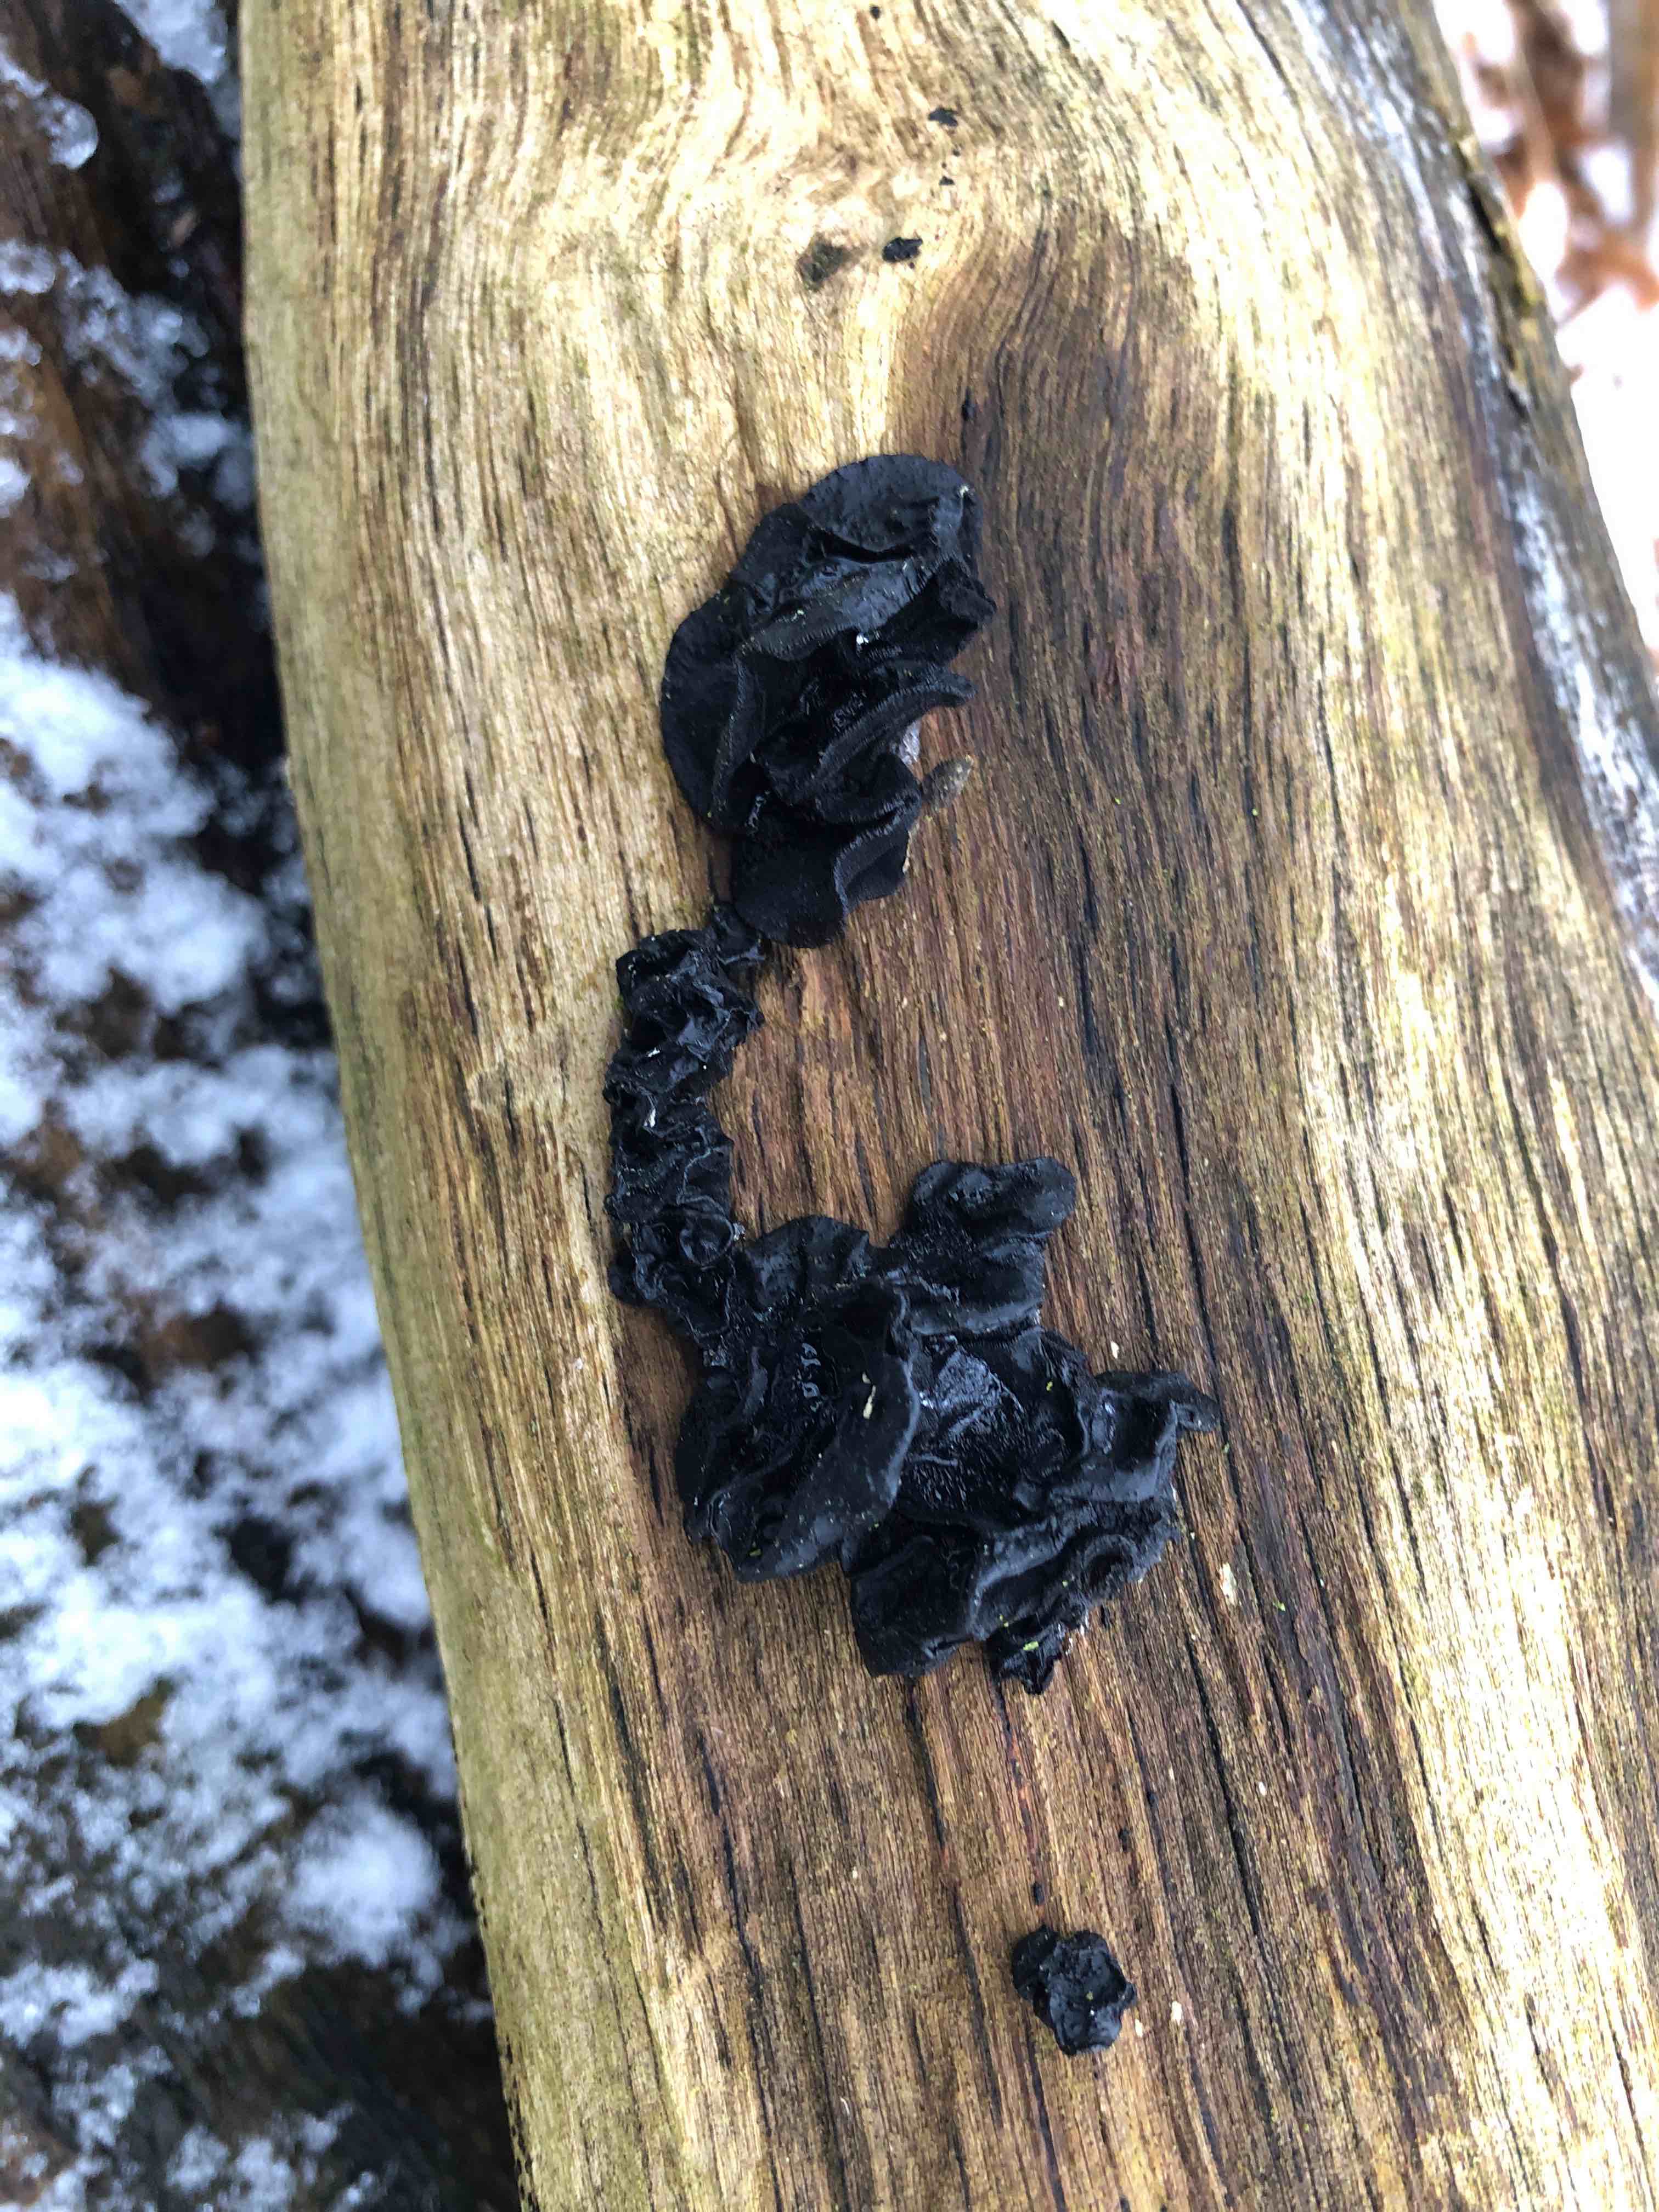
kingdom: Fungi
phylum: Basidiomycota
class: Agaricomycetes
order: Auriculariales
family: Auriculariaceae
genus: Exidia
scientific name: Exidia glandulosa
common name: ege-bævretop
